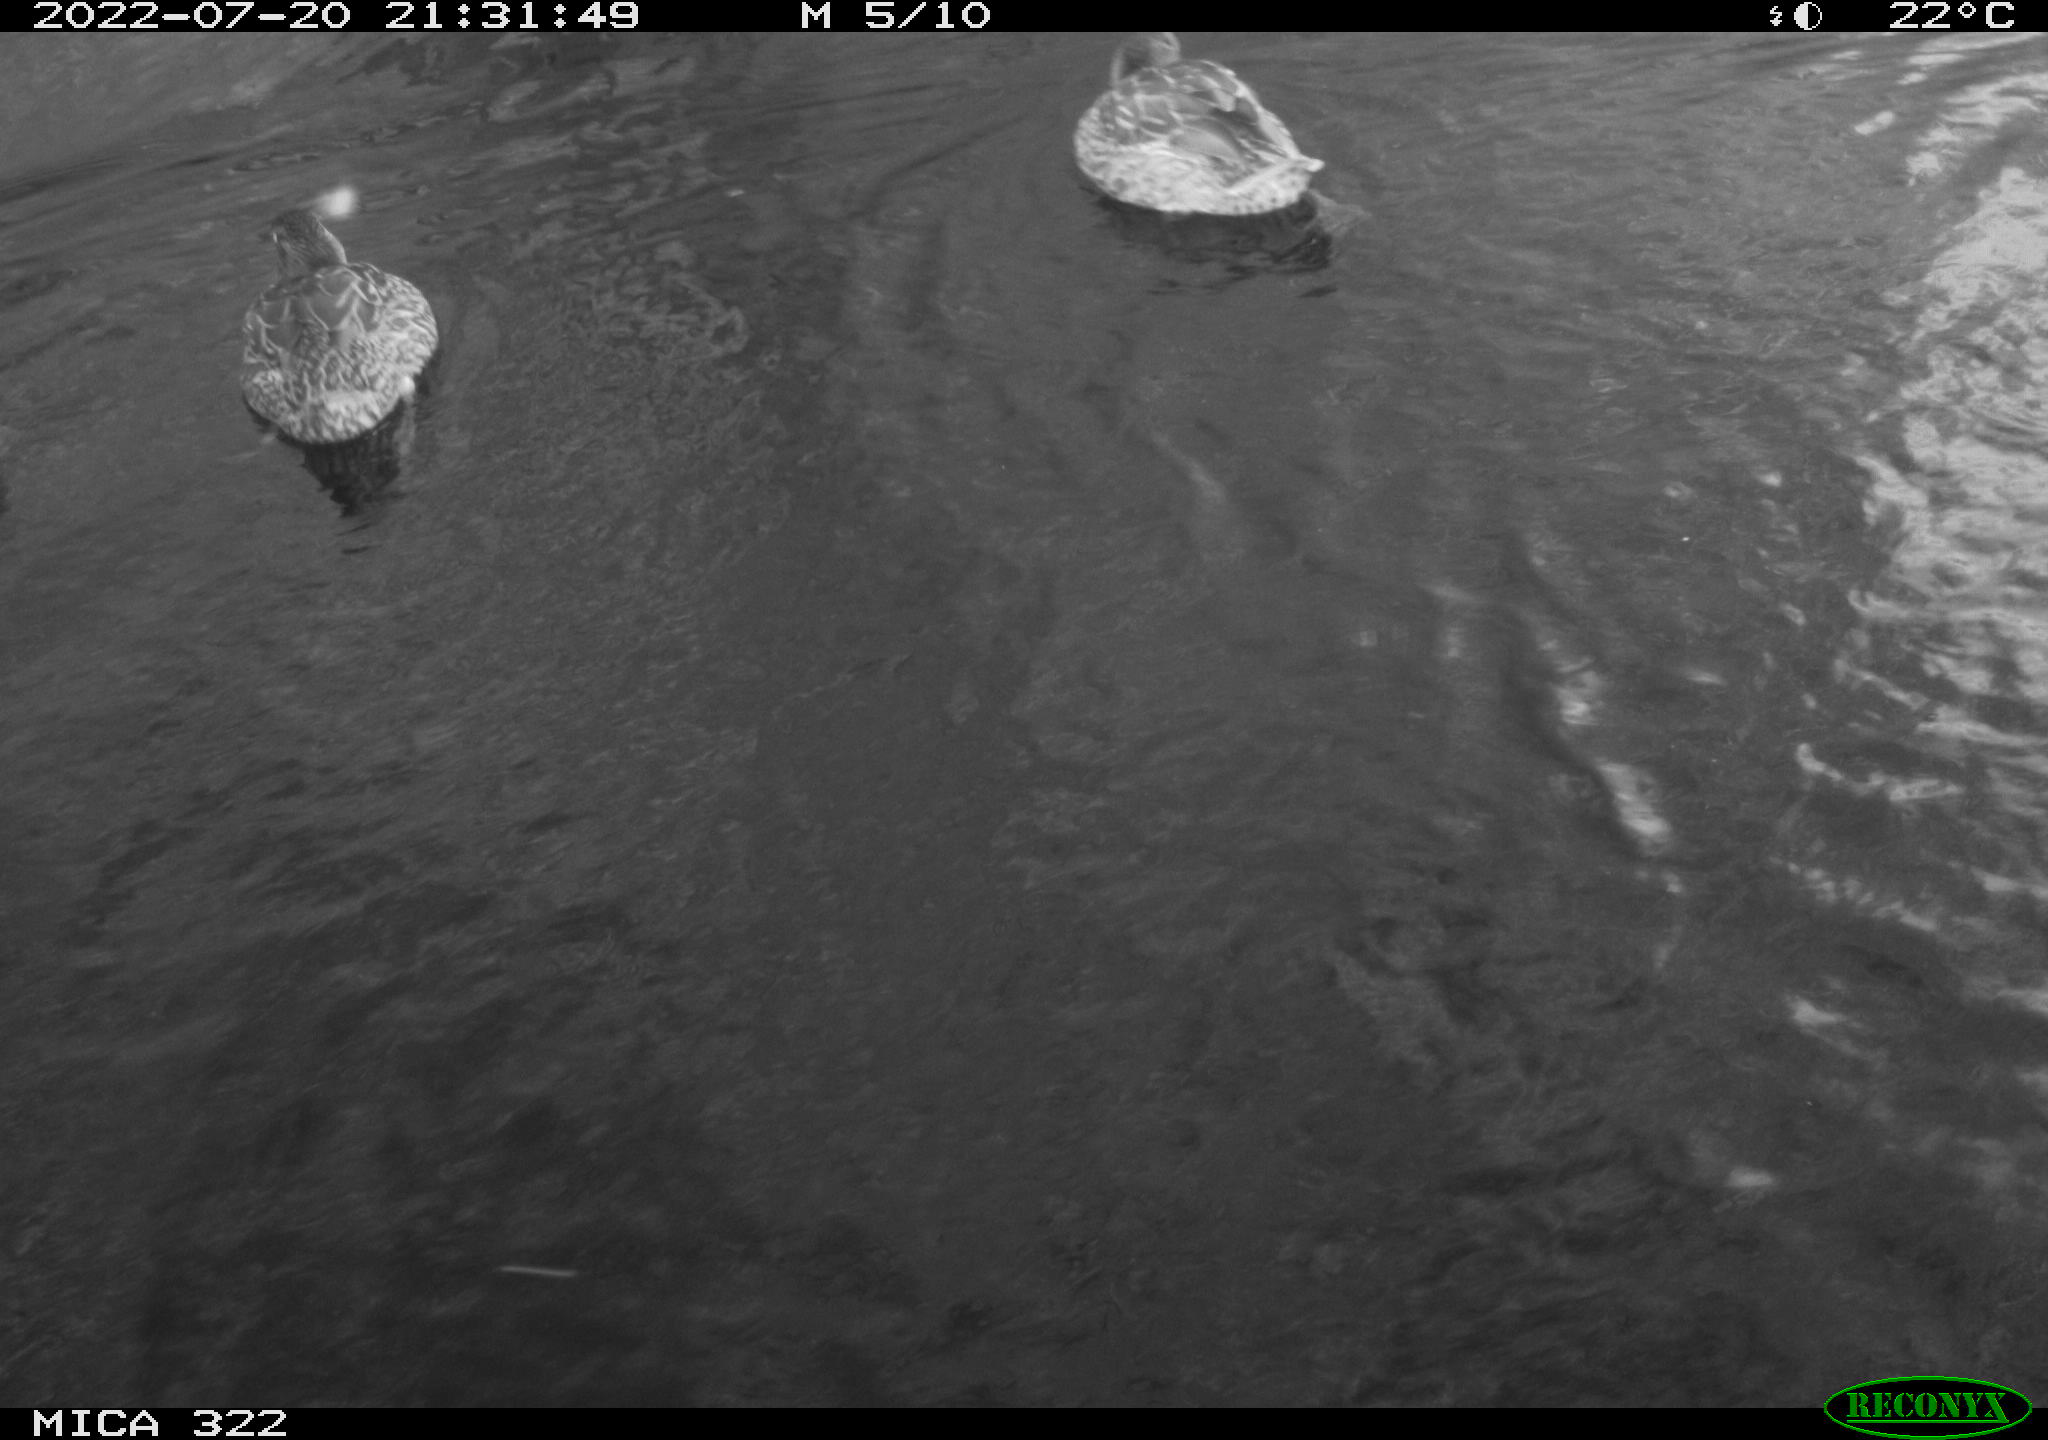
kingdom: Animalia
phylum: Chordata
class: Aves
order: Anseriformes
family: Anatidae
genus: Mareca
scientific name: Mareca strepera
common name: Gadwall
